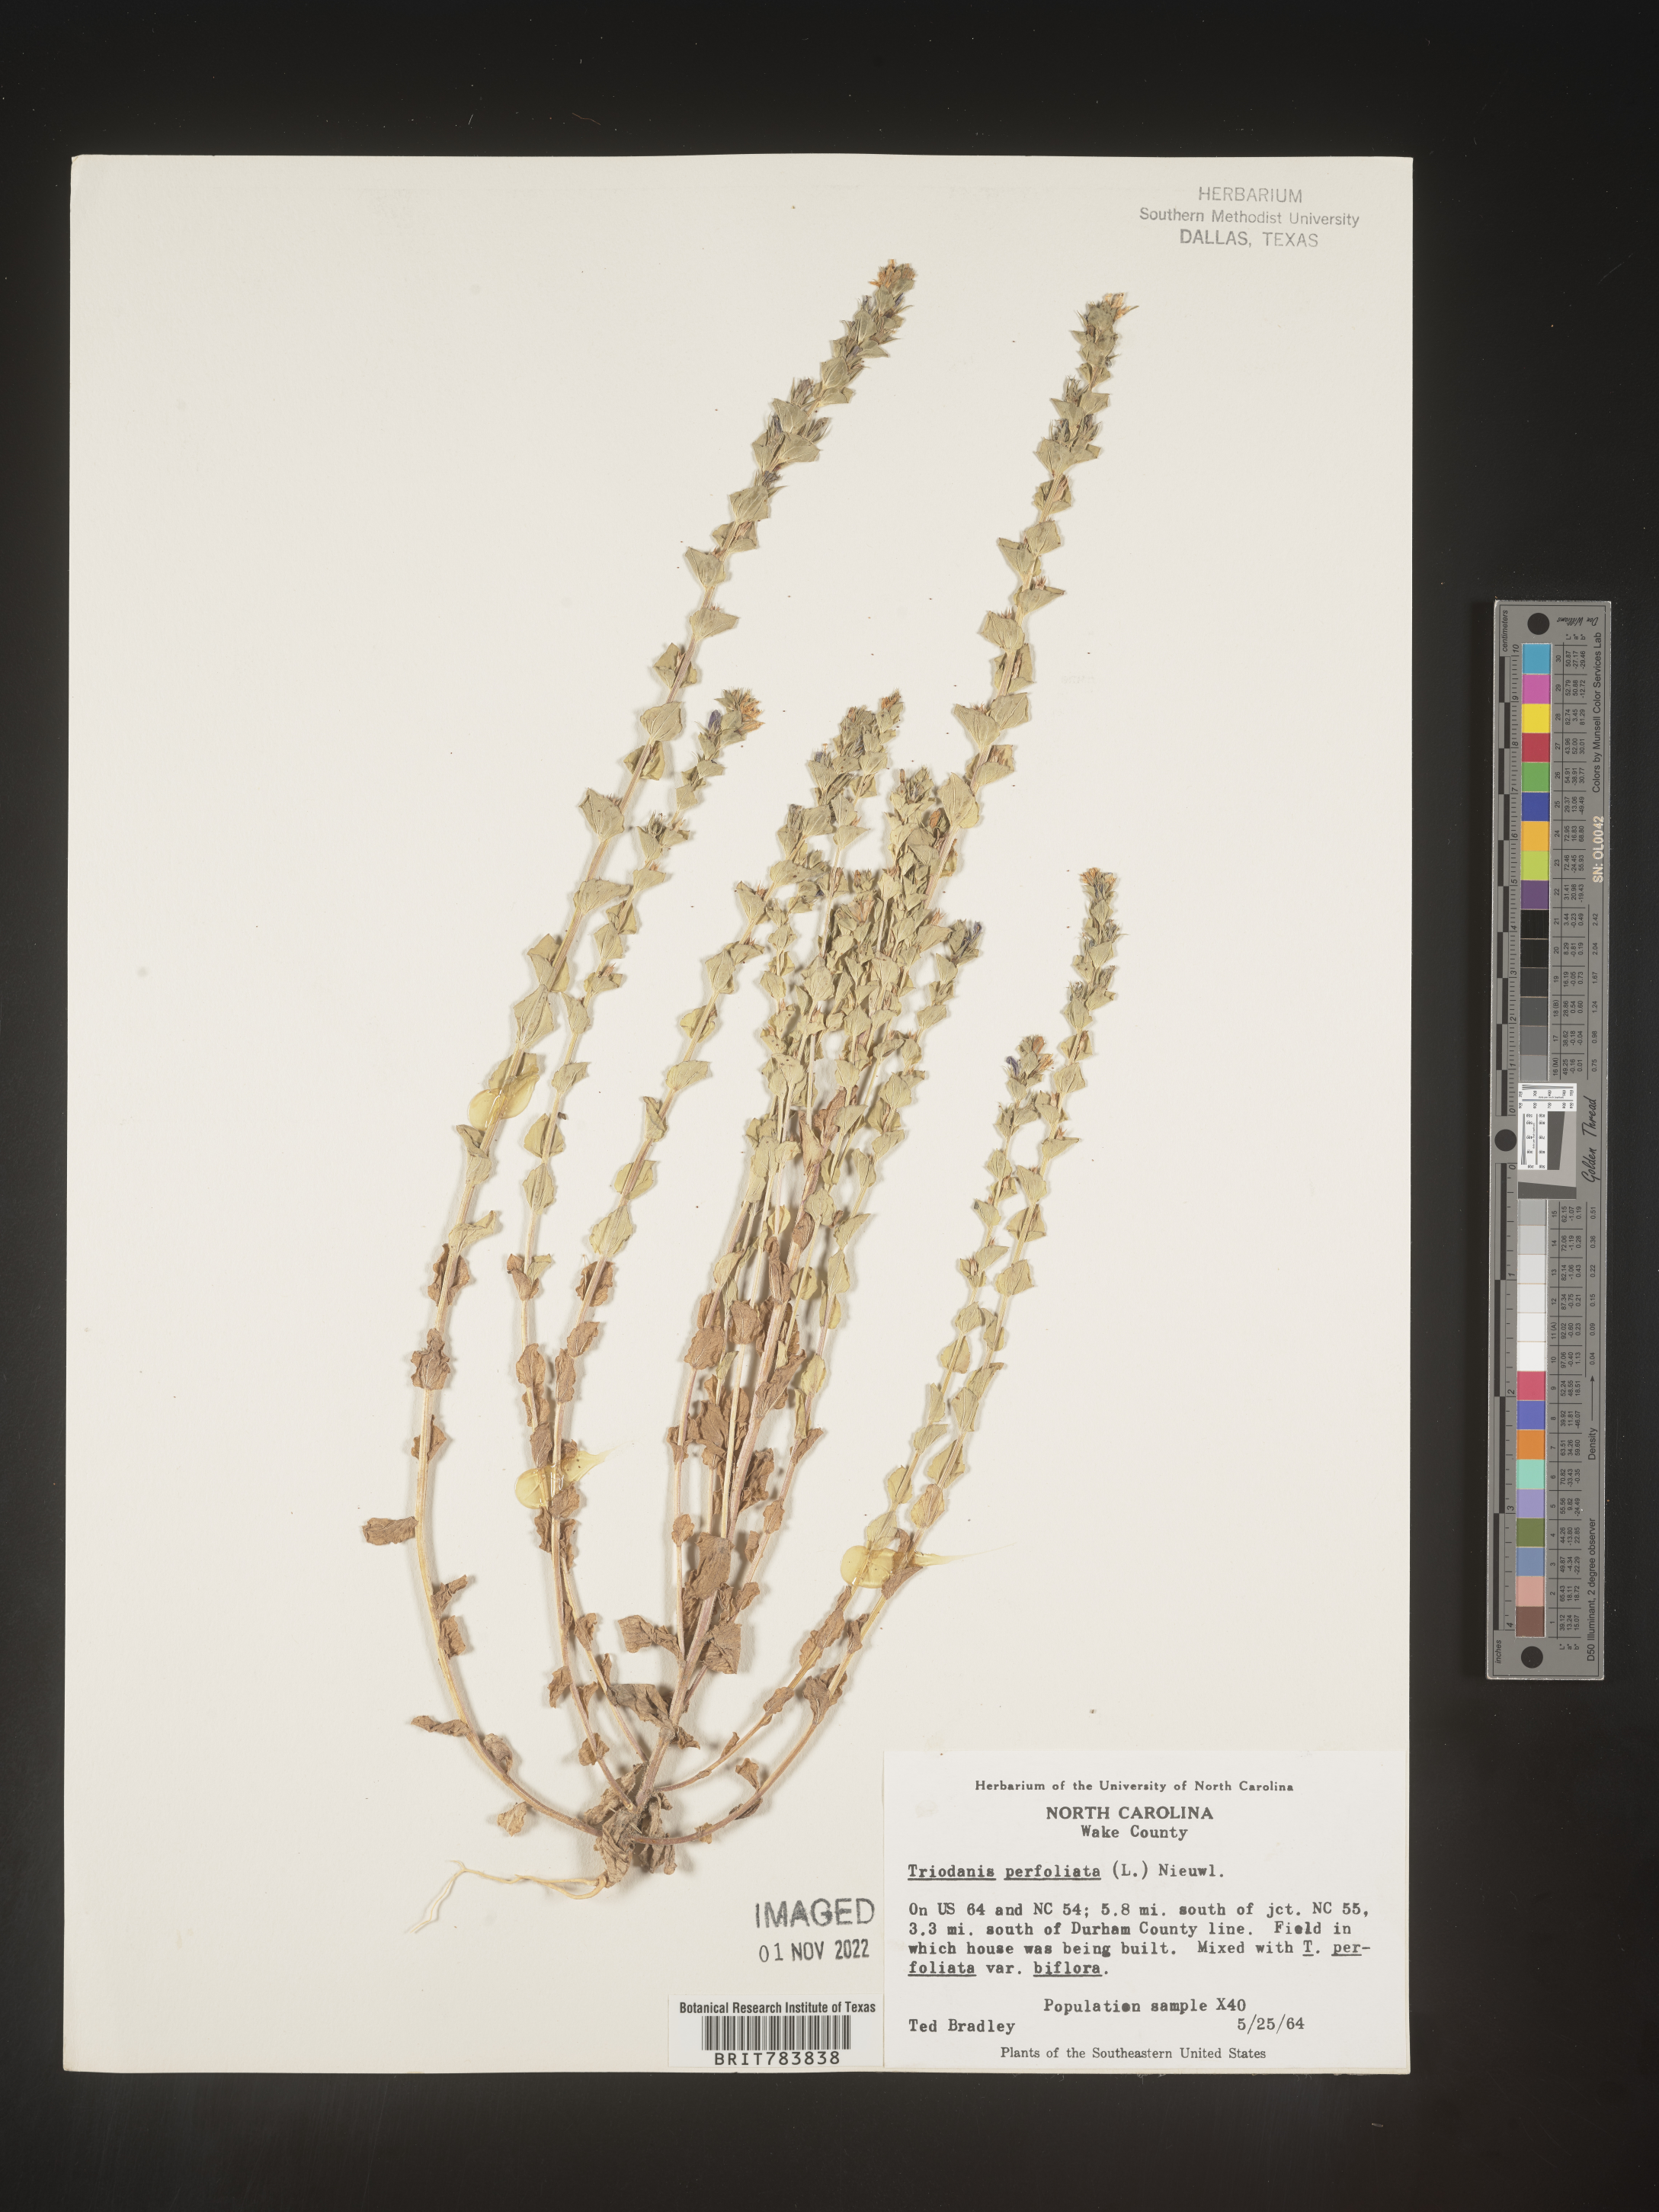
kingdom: Plantae
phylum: Tracheophyta
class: Magnoliopsida
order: Asterales
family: Campanulaceae
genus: Triodanis
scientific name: Triodanis perfoliata
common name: Clasping venus' looking-glass
